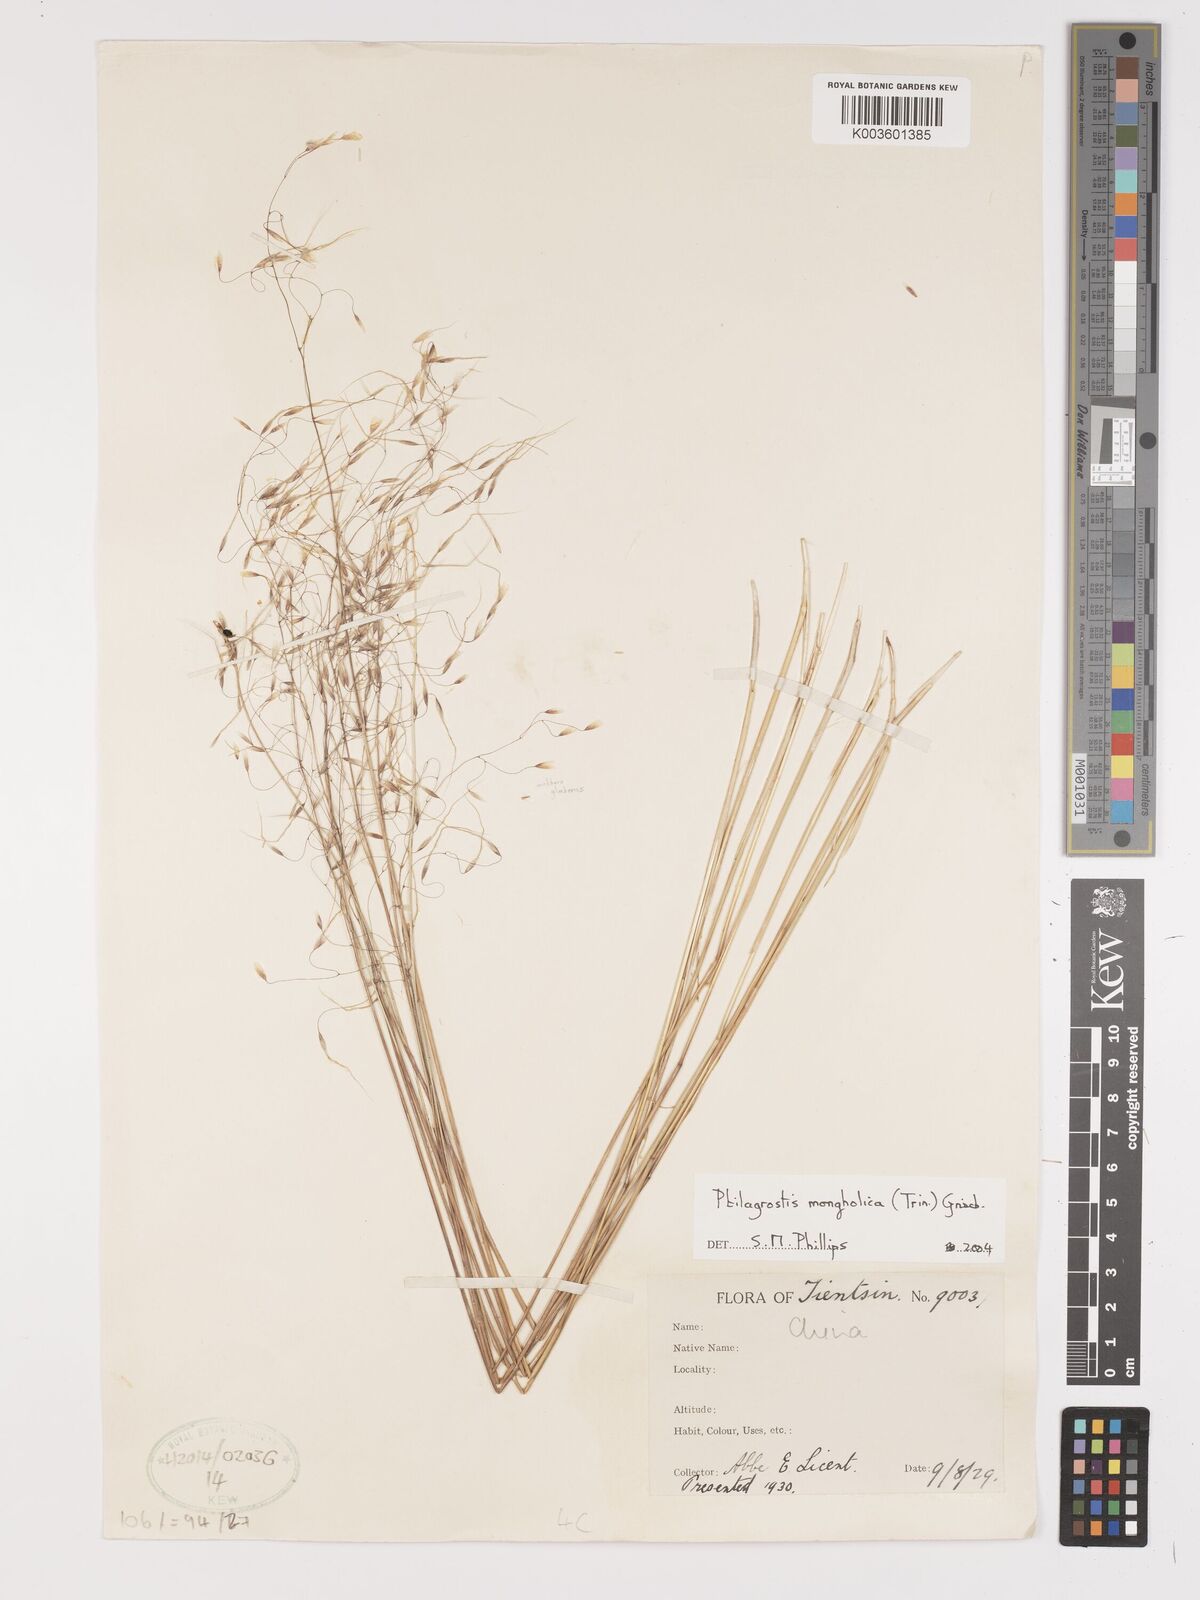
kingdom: Plantae
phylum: Tracheophyta
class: Liliopsida
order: Poales
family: Poaceae
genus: Ptilagrostis
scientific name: Ptilagrostis mongholica
